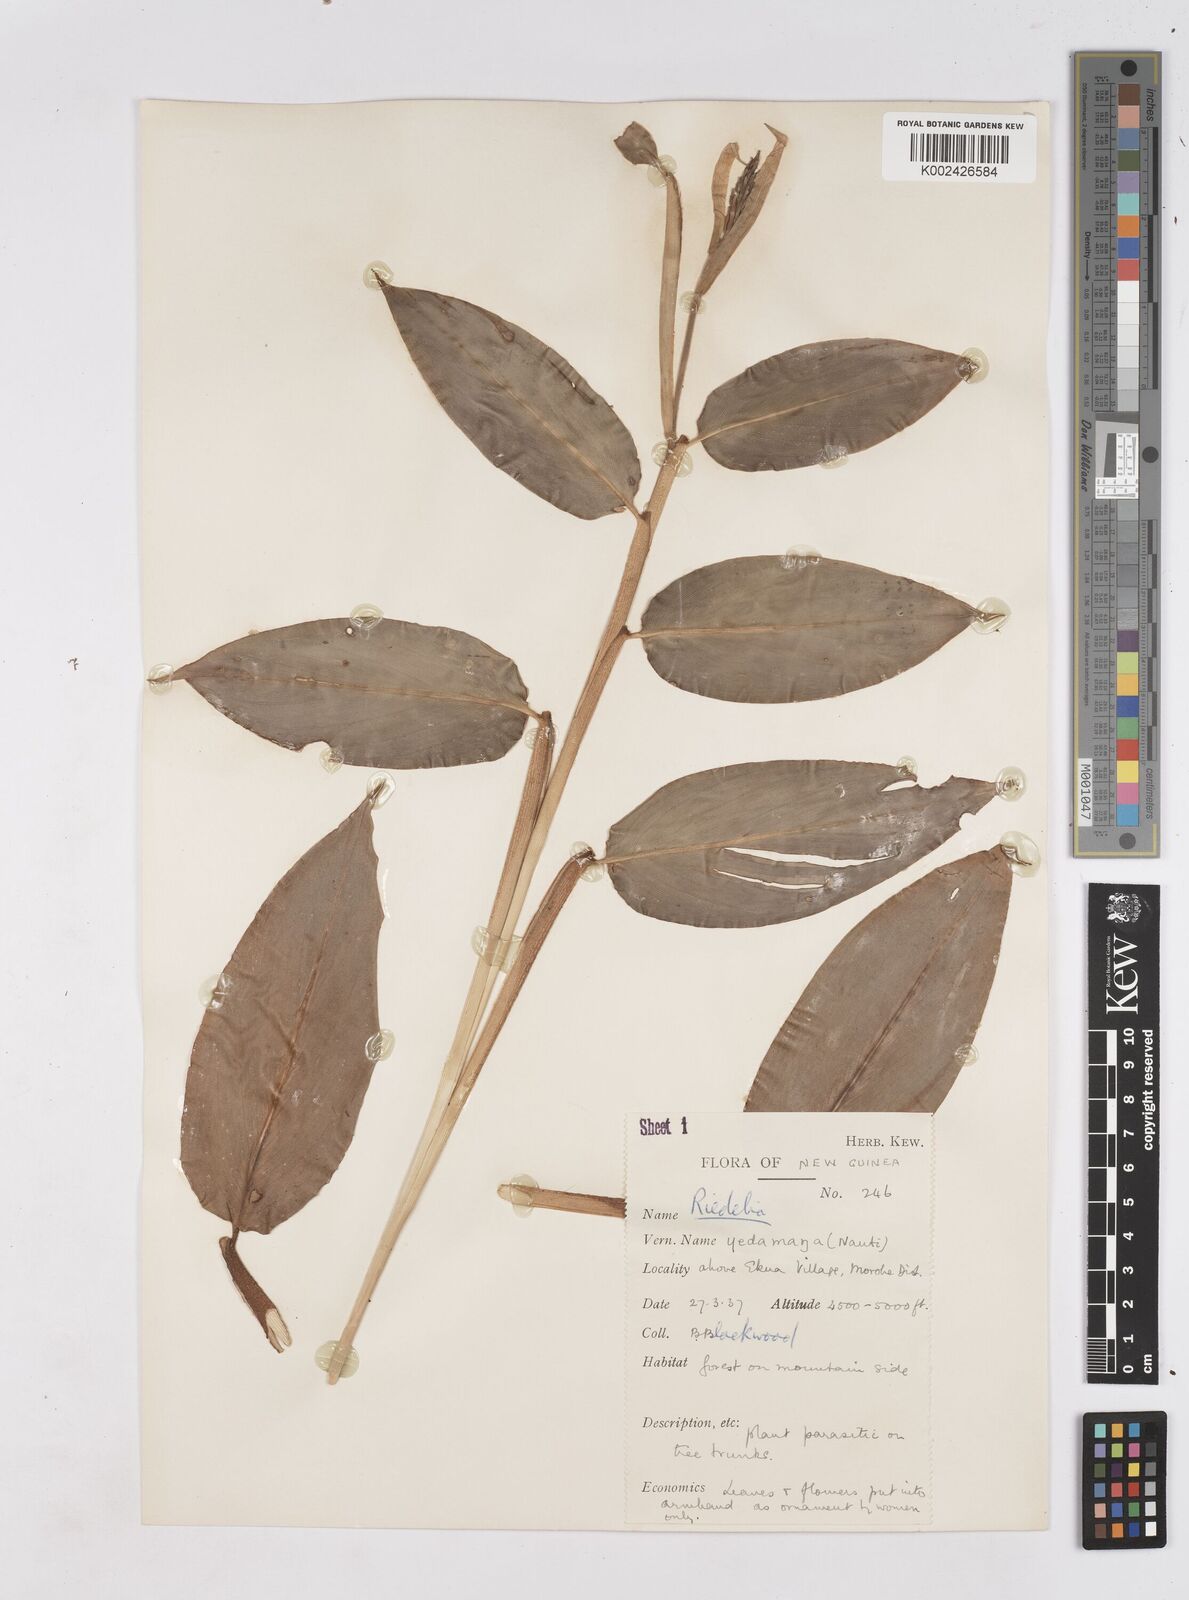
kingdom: Plantae
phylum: Tracheophyta
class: Liliopsida
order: Zingiberales
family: Zingiberaceae
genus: Riedelia
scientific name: Riedelia
